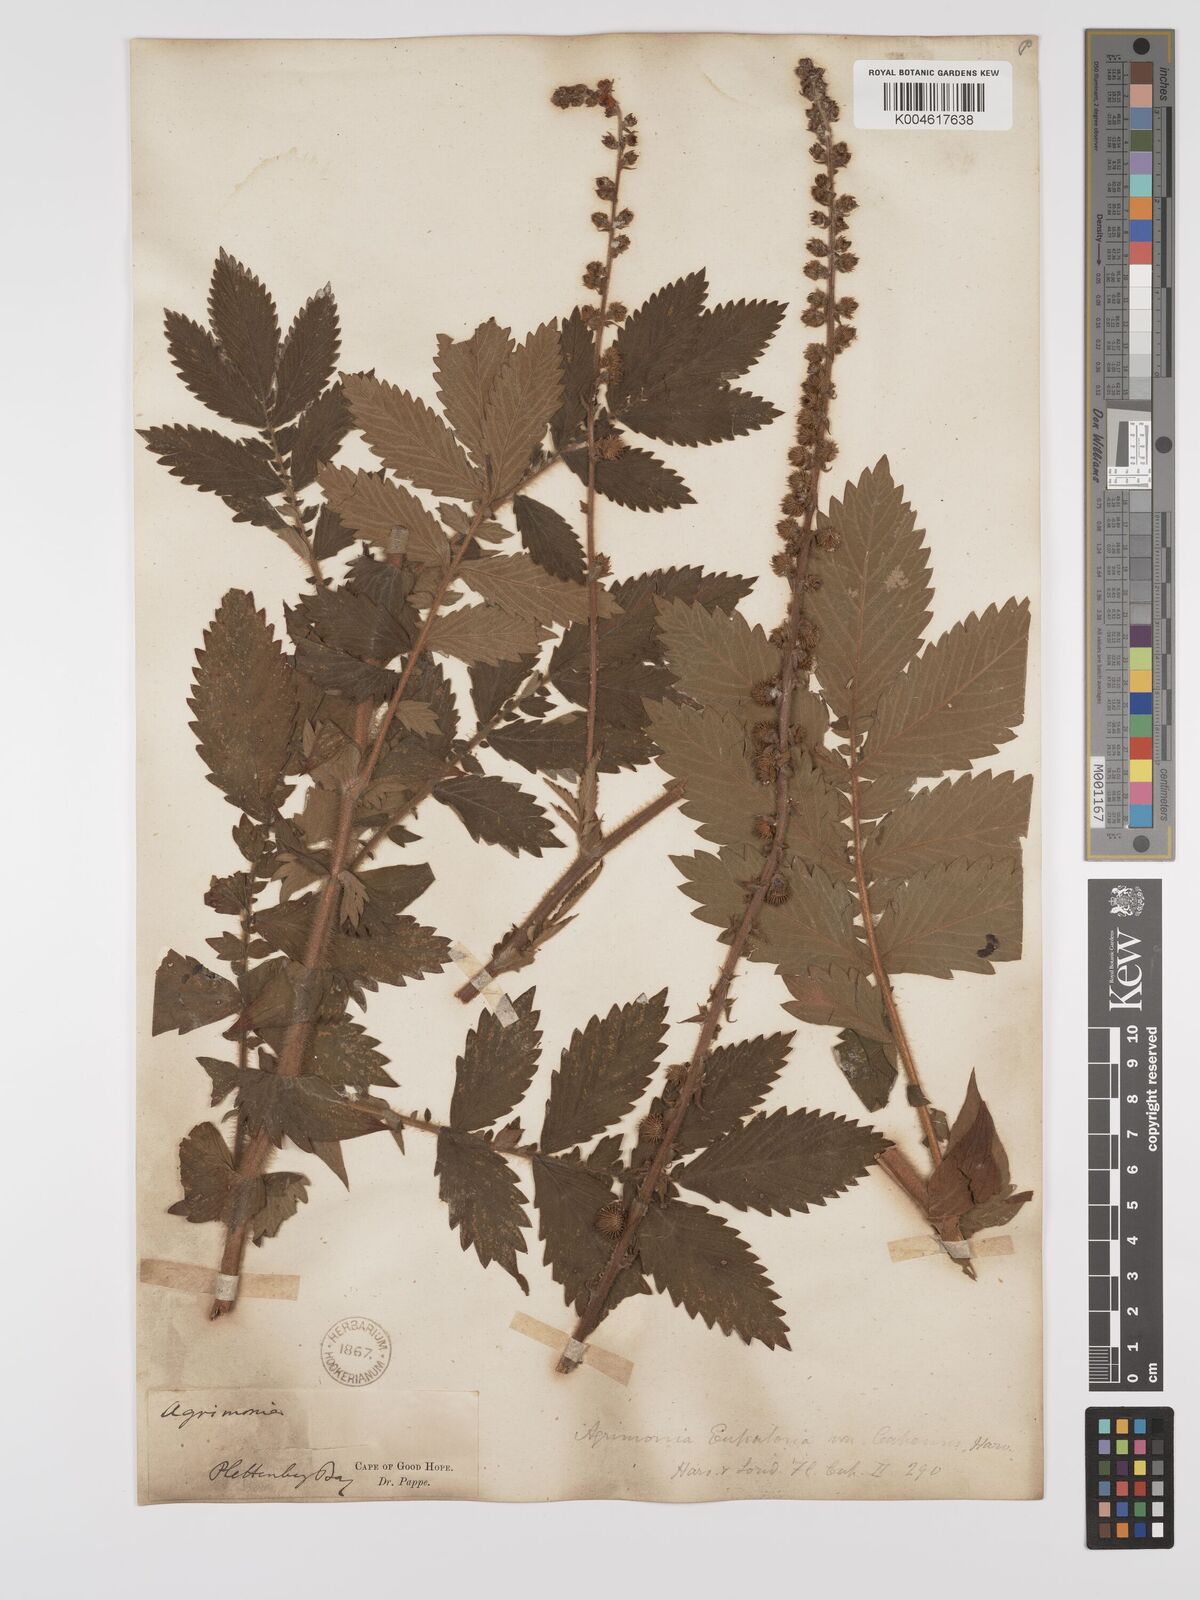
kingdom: Plantae
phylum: Tracheophyta
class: Magnoliopsida
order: Rosales
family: Rosaceae
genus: Agrimonia
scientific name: Agrimonia eupatoria
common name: Agrimony
